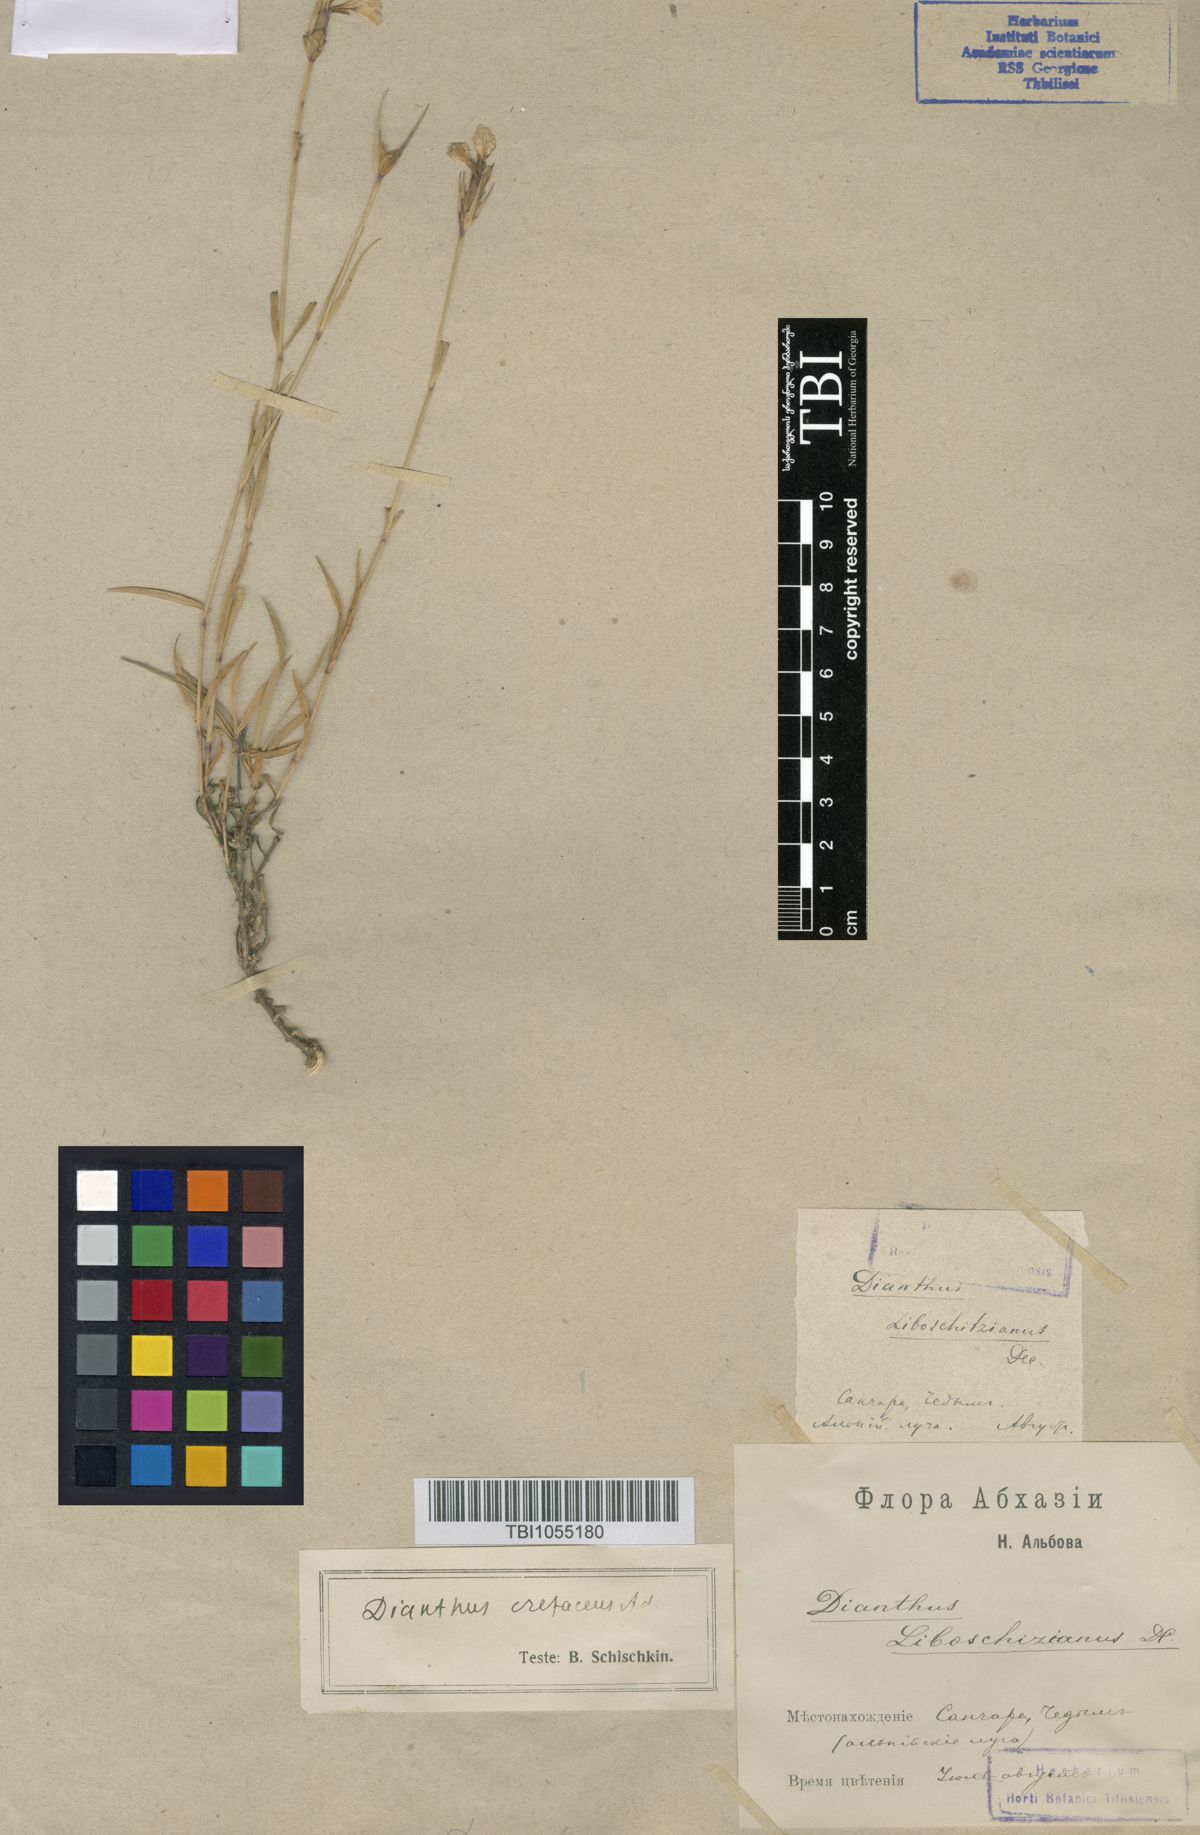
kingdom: Plantae
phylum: Tracheophyta
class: Magnoliopsida
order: Caryophyllales
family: Caryophyllaceae
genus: Dianthus
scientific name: Dianthus cretaceus
